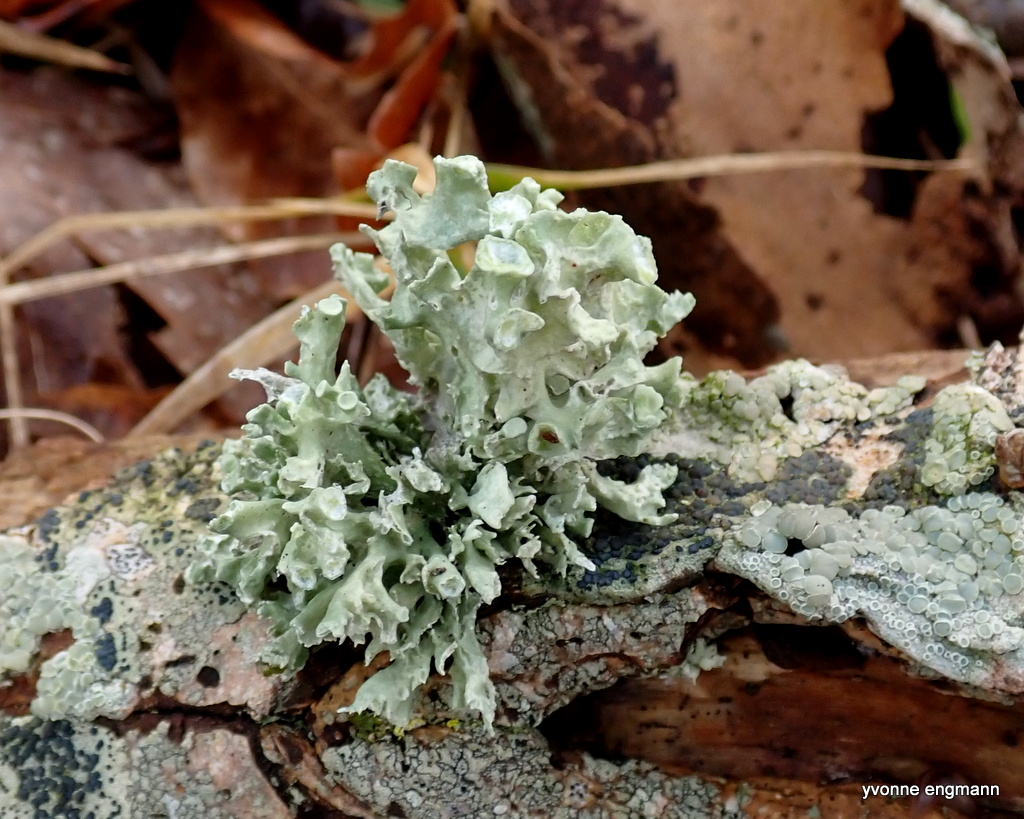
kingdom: Fungi
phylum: Ascomycota
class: Lecanoromycetes
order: Lecanorales
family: Ramalinaceae
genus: Ramalina
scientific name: Ramalina fastigiata
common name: tue-grenlav
